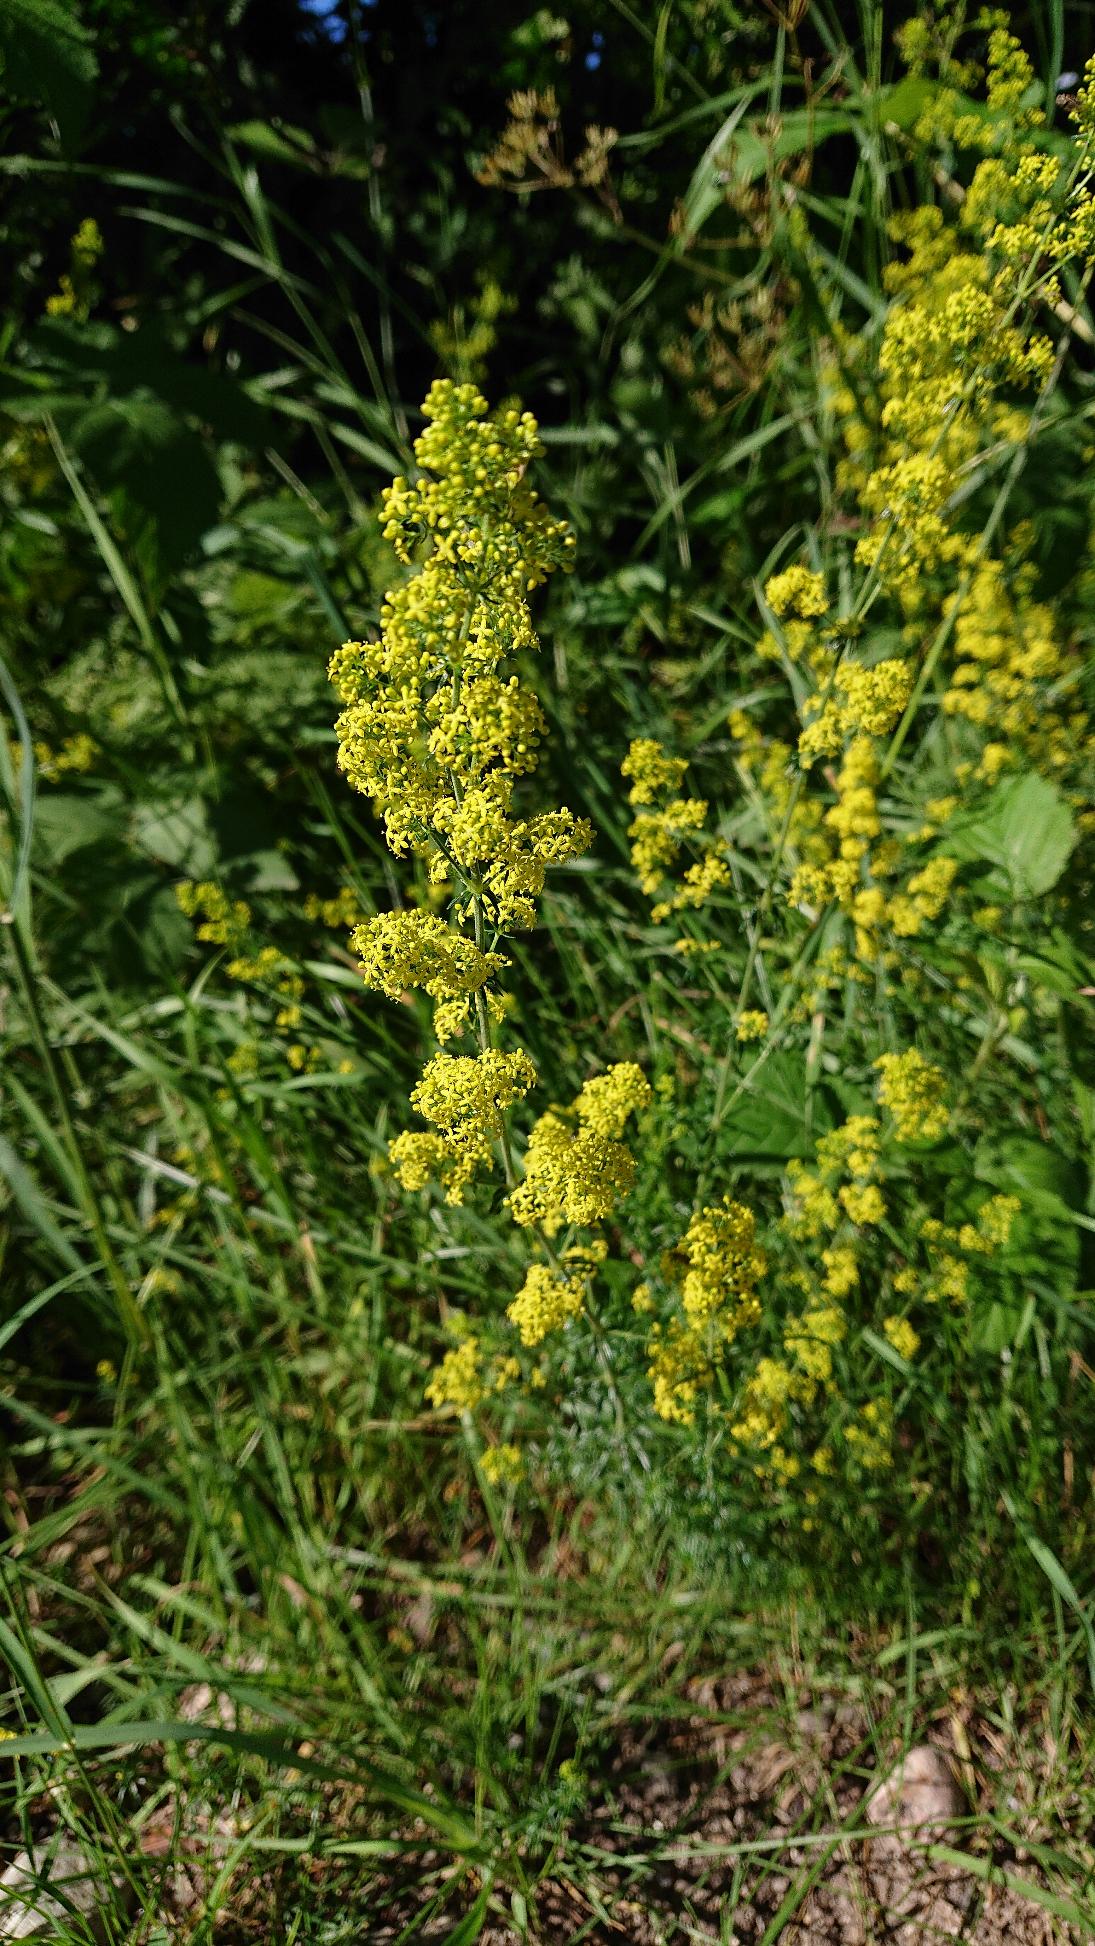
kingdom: Plantae
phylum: Tracheophyta
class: Magnoliopsida
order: Gentianales
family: Rubiaceae
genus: Galium
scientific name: Galium verum
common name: Gul snerre
